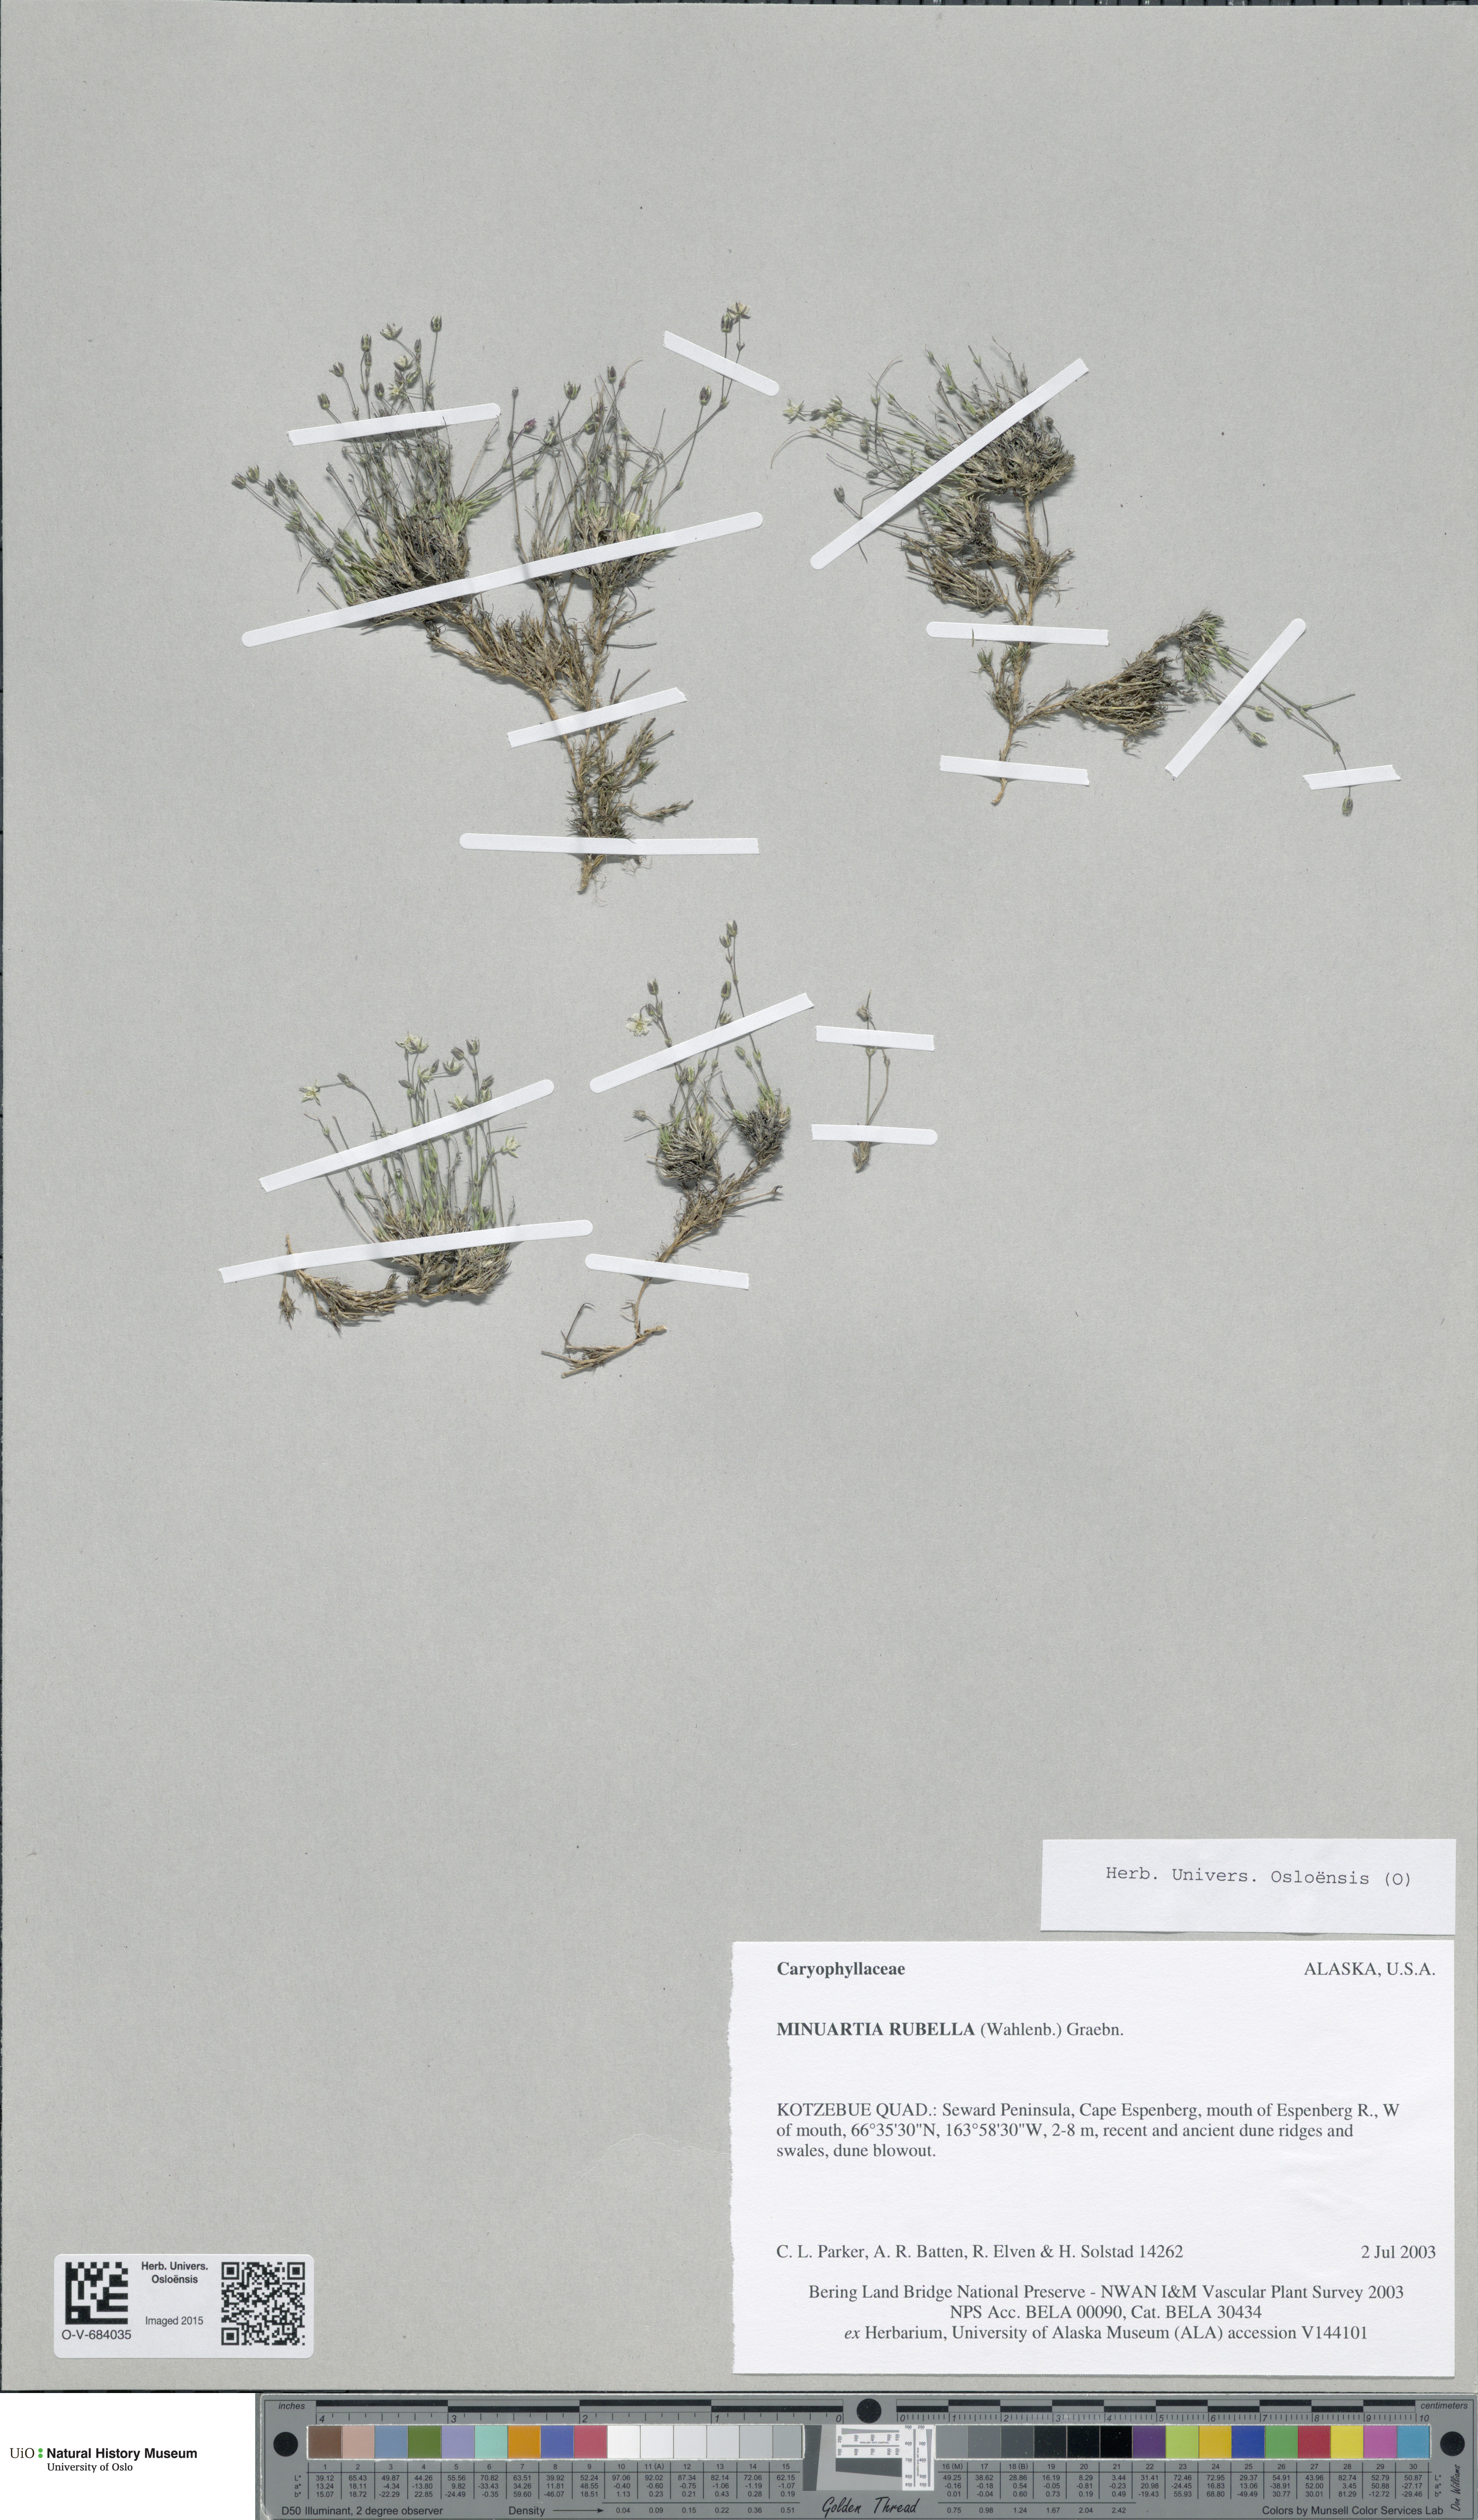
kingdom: Plantae
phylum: Tracheophyta
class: Magnoliopsida
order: Caryophyllales
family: Caryophyllaceae
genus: Sabulina
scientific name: Sabulina rubella
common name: Beautiful sandwort
